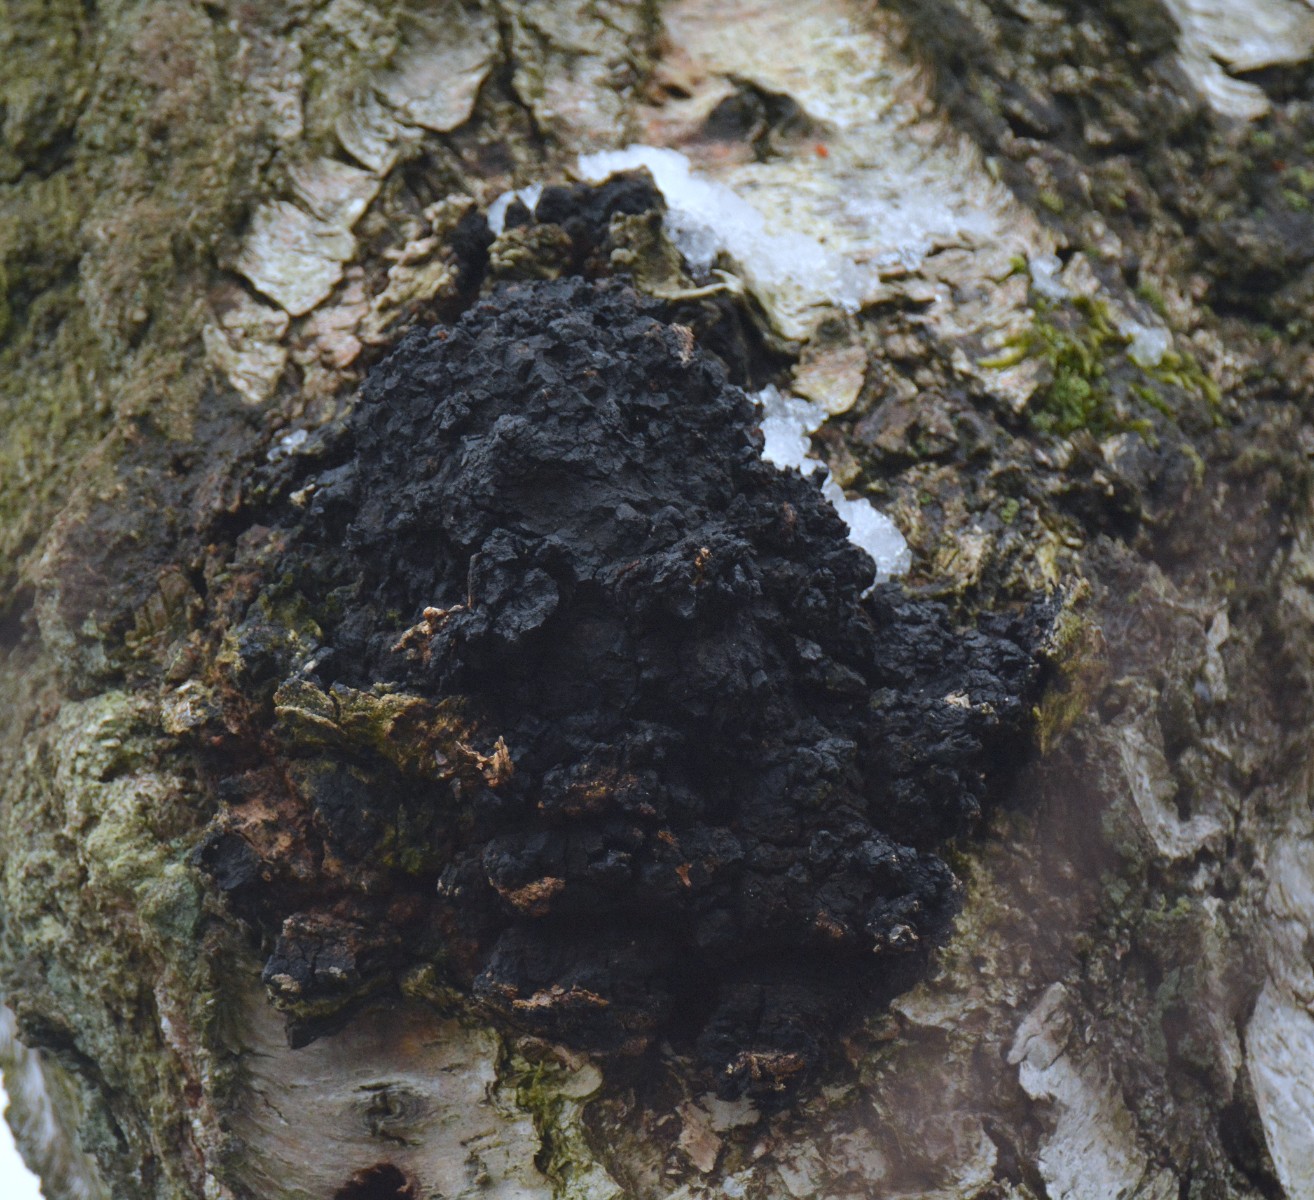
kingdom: Fungi
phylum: Basidiomycota
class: Agaricomycetes
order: Hymenochaetales
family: Hymenochaetaceae
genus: Inonotus
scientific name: Inonotus obliquus
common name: birke-spejlporesvamp
